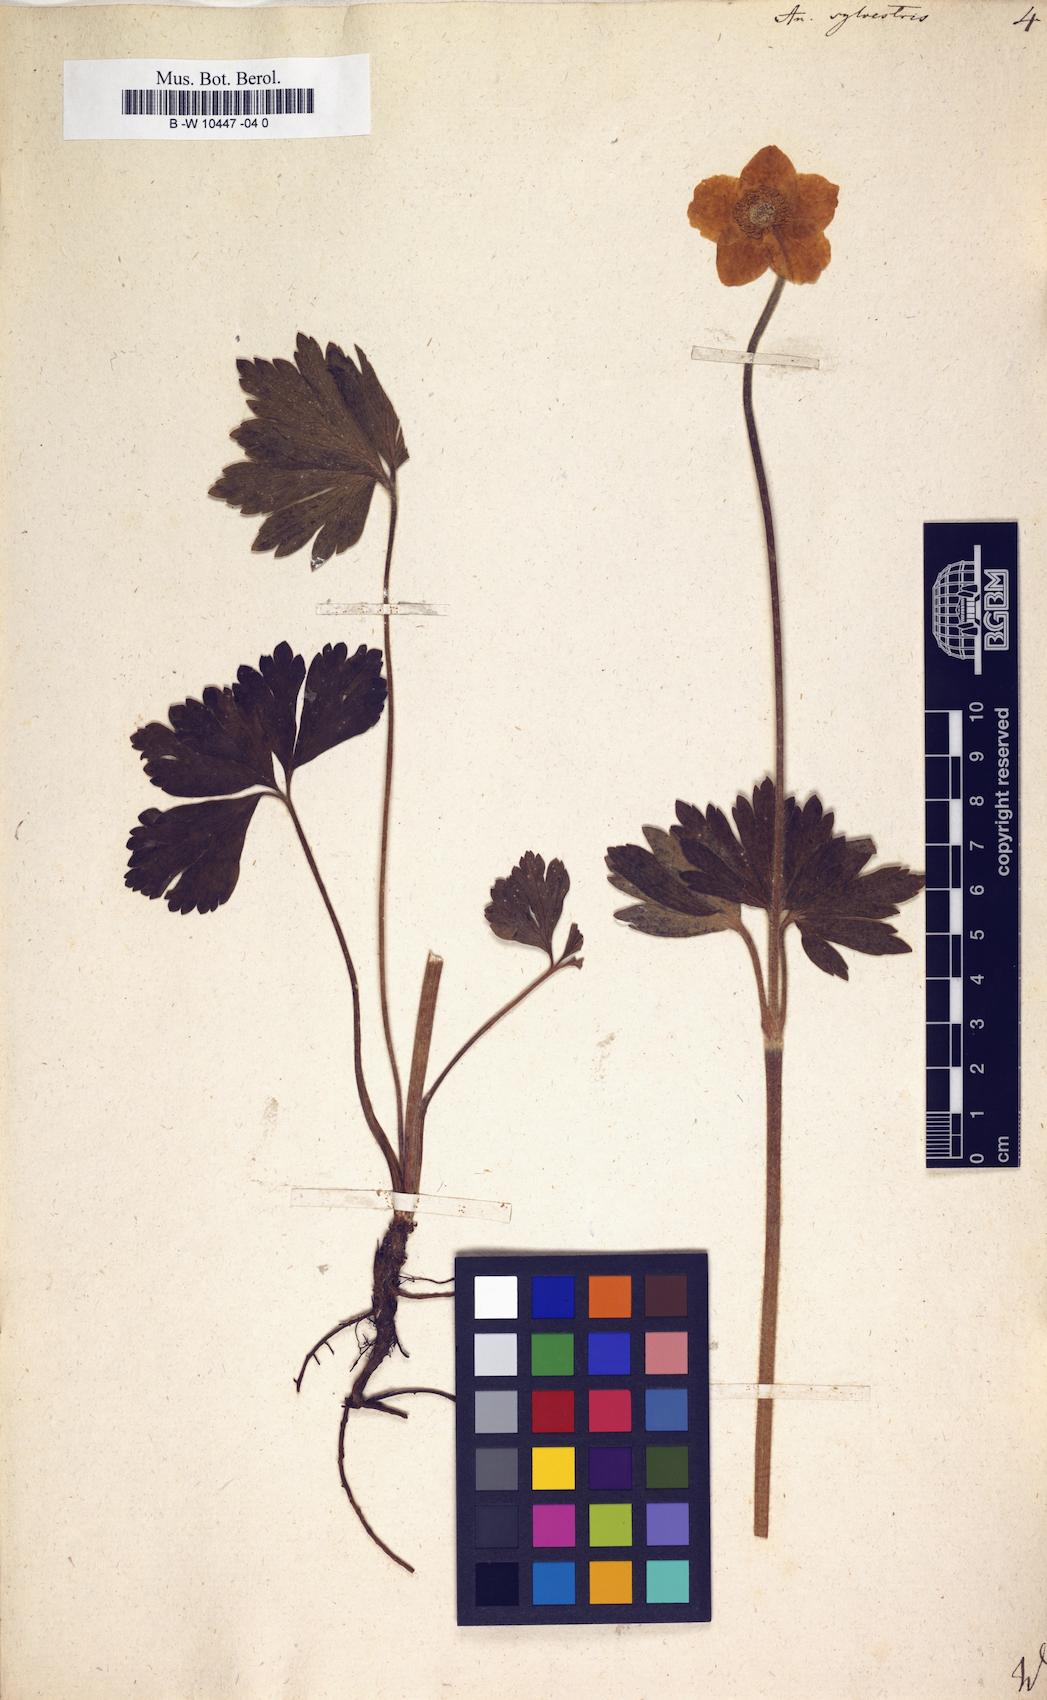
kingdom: Plantae
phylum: Tracheophyta
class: Magnoliopsida
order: Ranunculales
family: Ranunculaceae
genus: Anemone
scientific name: Anemone sylvestris
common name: Snowdrop anemone
